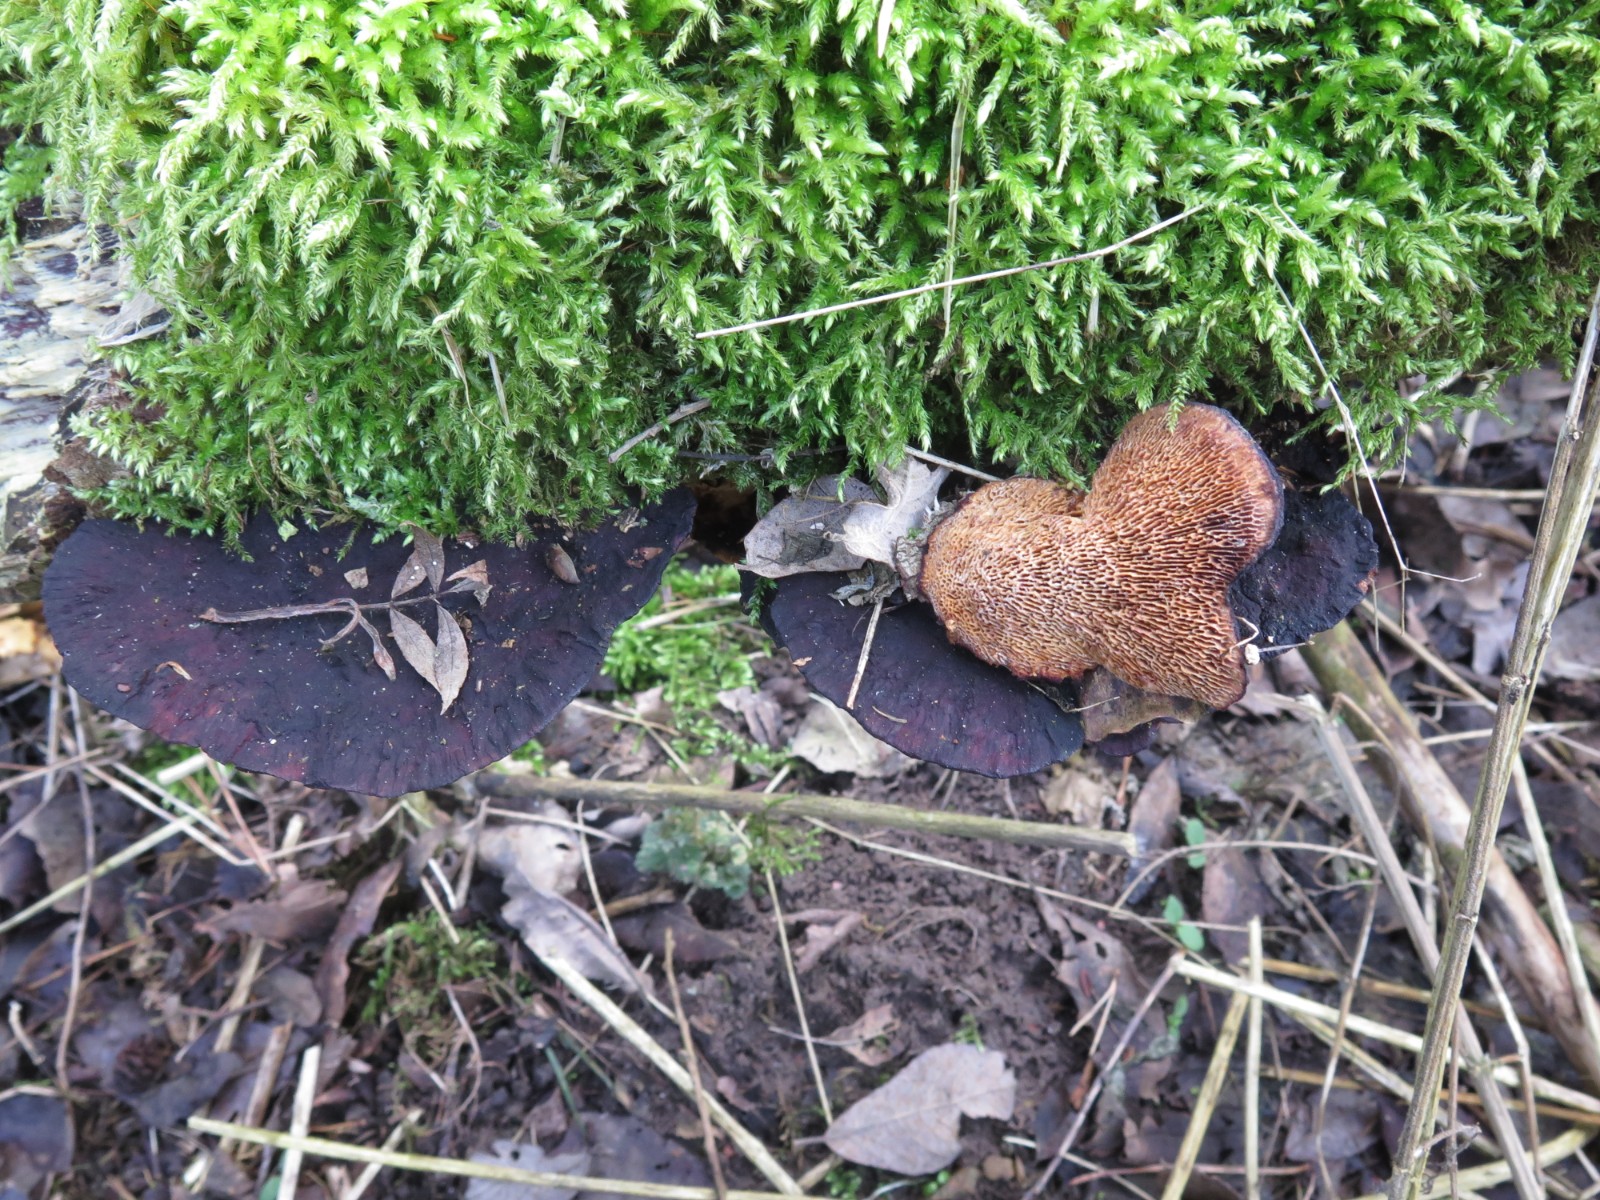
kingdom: Fungi
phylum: Basidiomycota
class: Agaricomycetes
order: Polyporales
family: Polyporaceae
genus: Daedaleopsis
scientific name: Daedaleopsis confragosa
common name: rødmende læderporesvamp
